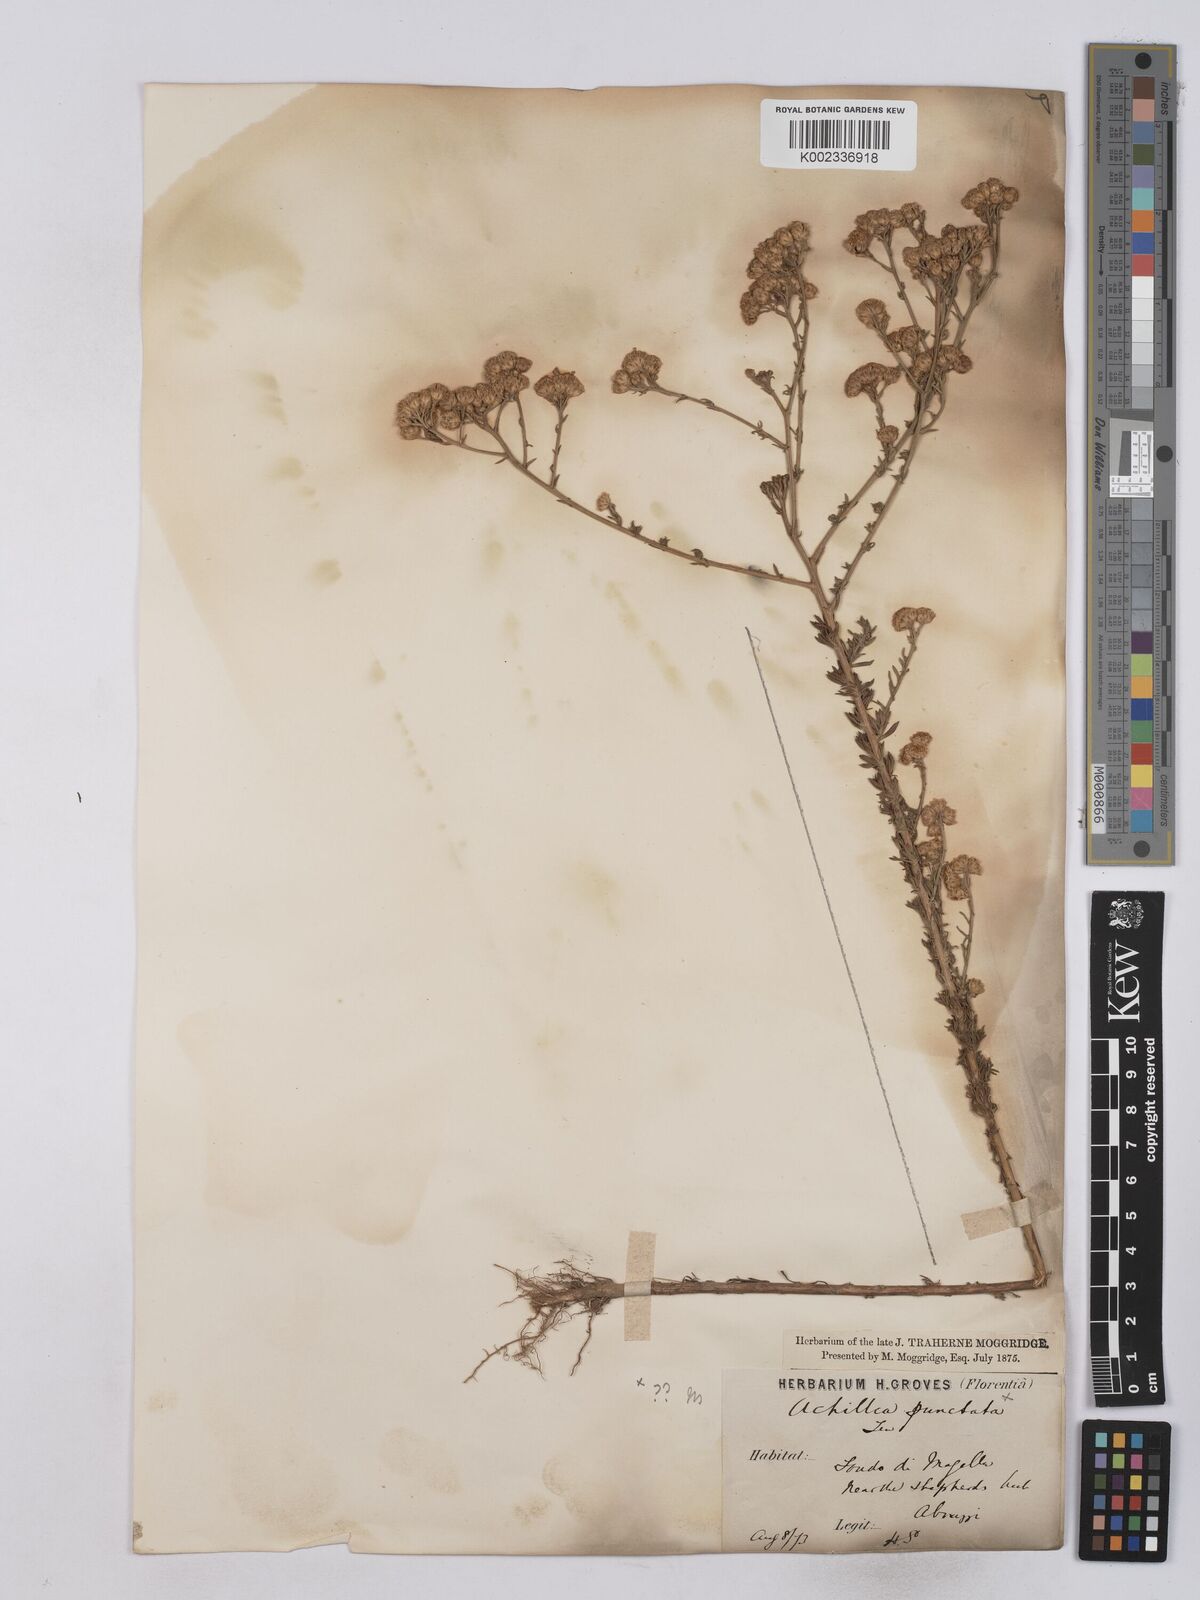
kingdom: Plantae
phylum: Tracheophyta
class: Magnoliopsida
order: Asterales
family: Asteraceae
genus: Achillea
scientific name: Achillea odorata
